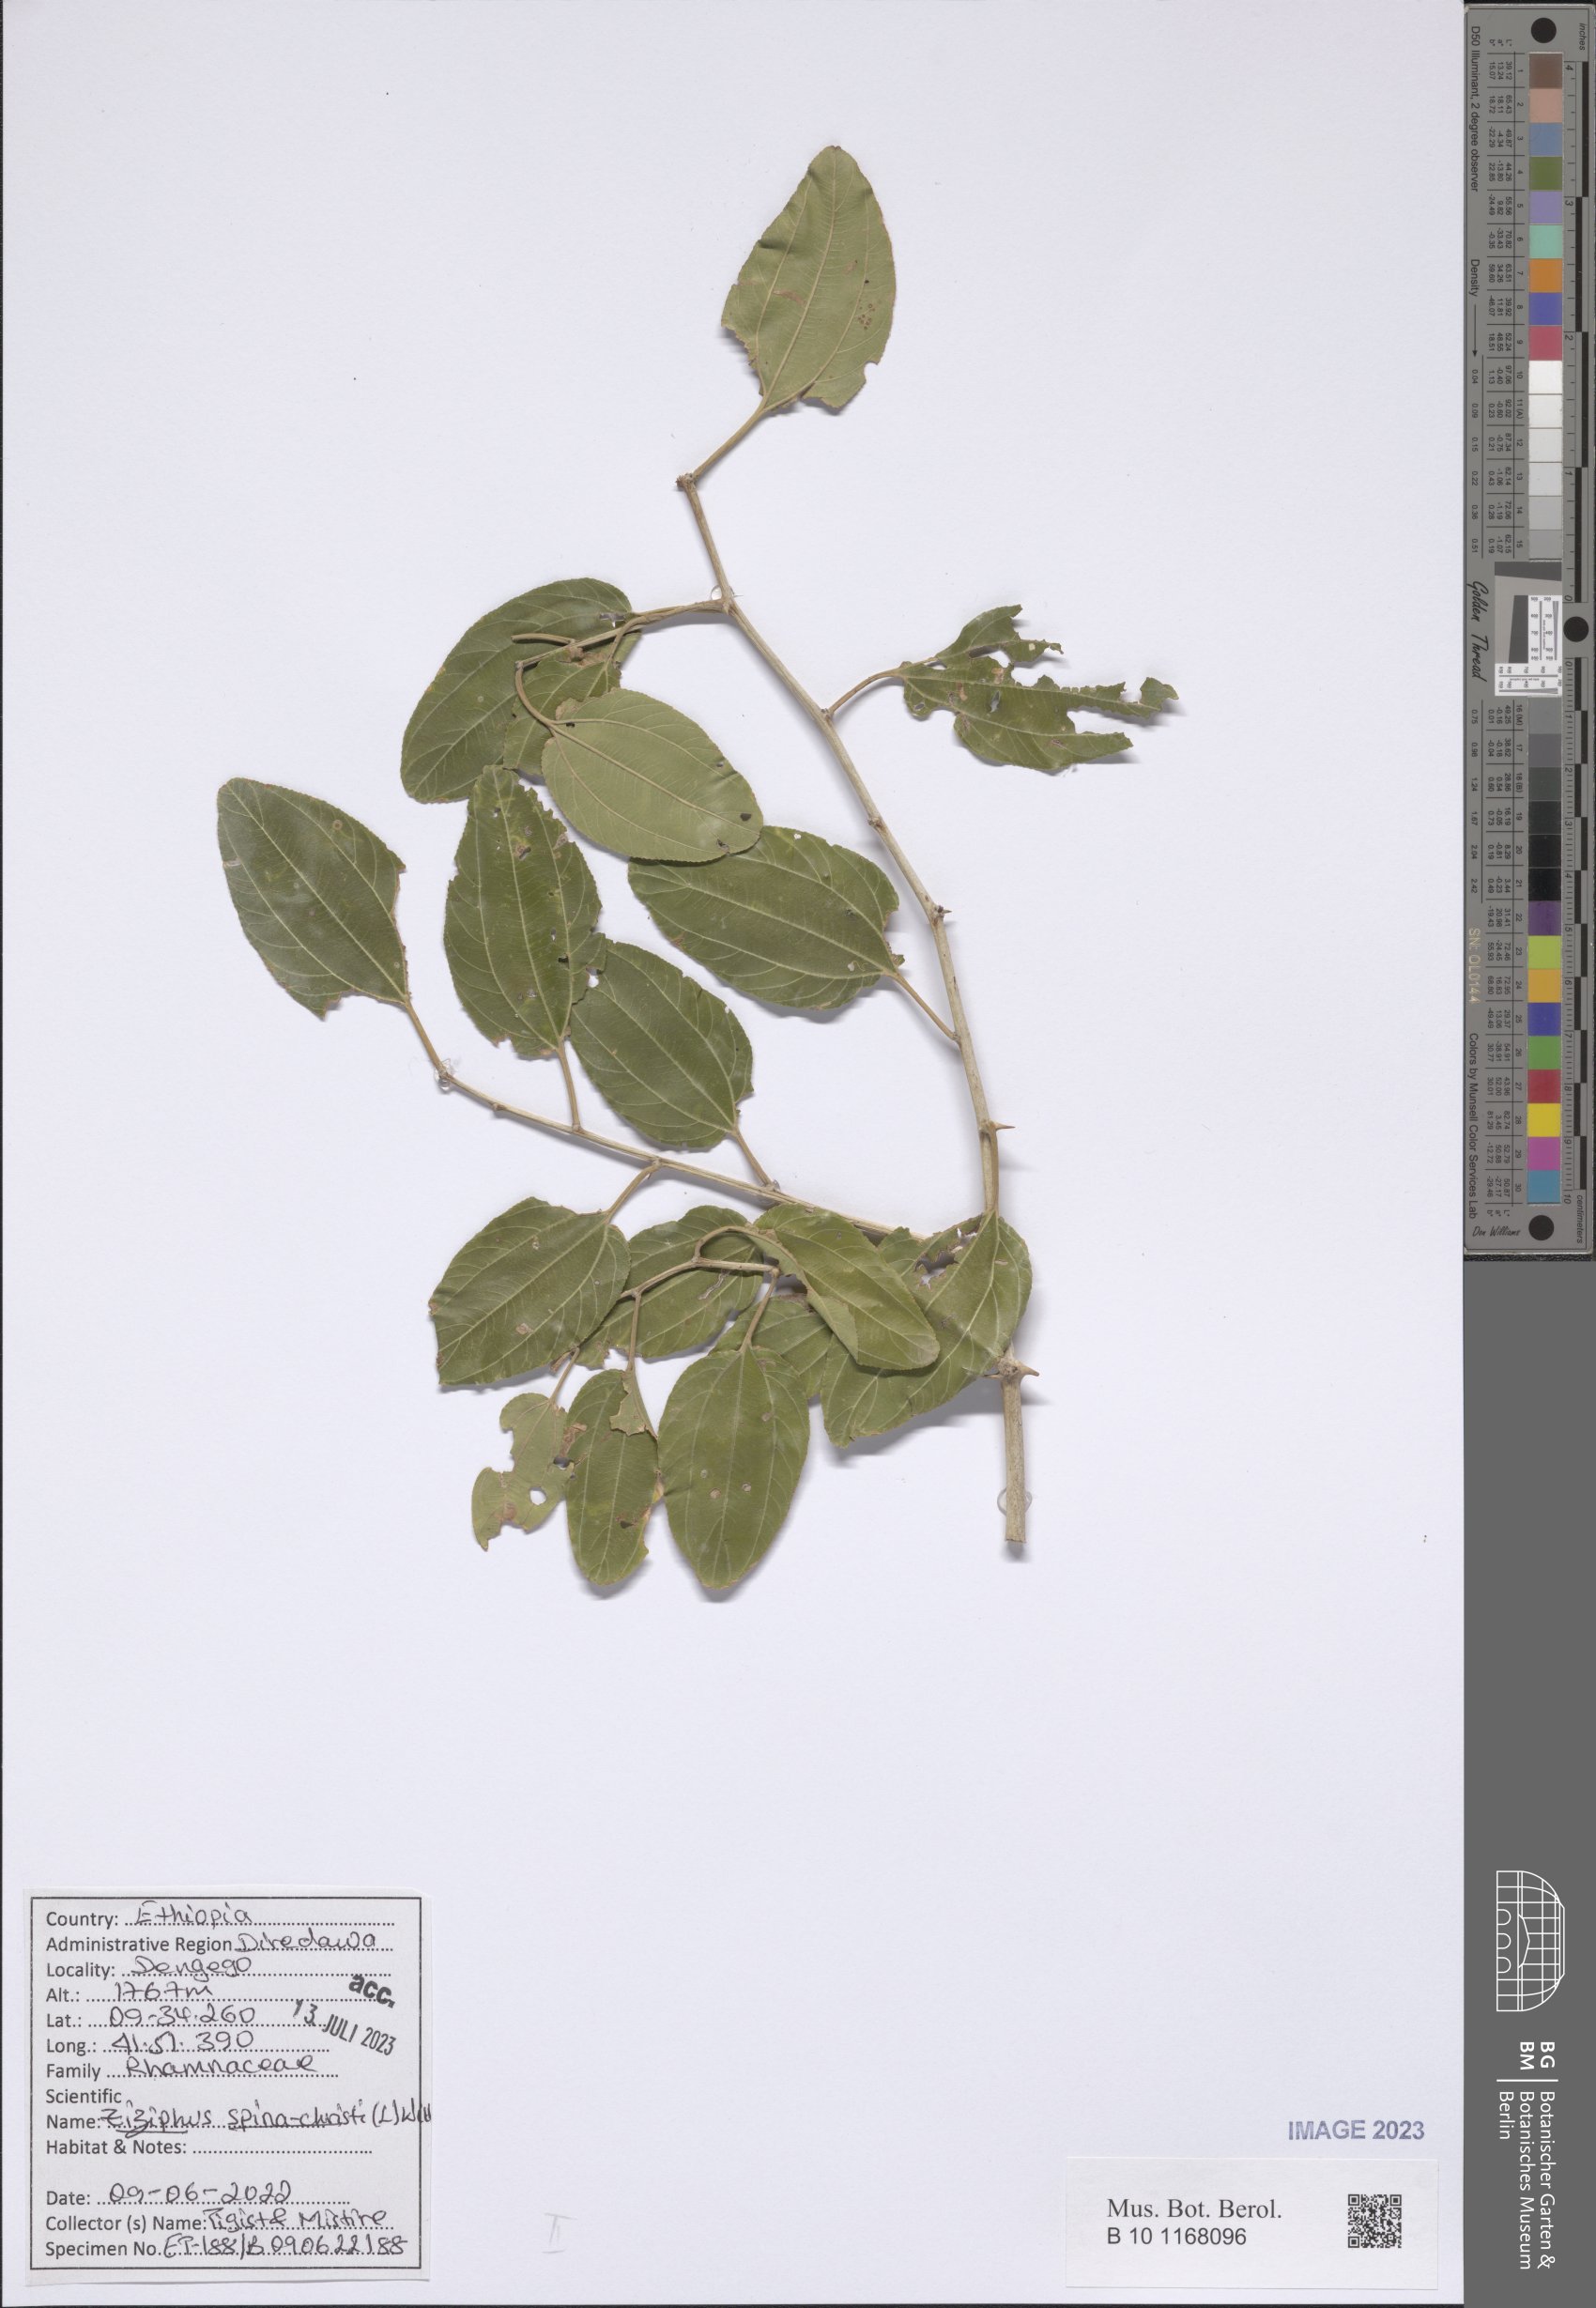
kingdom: Plantae
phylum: Tracheophyta
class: Magnoliopsida
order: Rosales
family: Rhamnaceae
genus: Ziziphus
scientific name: Ziziphus spina-christi
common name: Syrian christ-thorn
